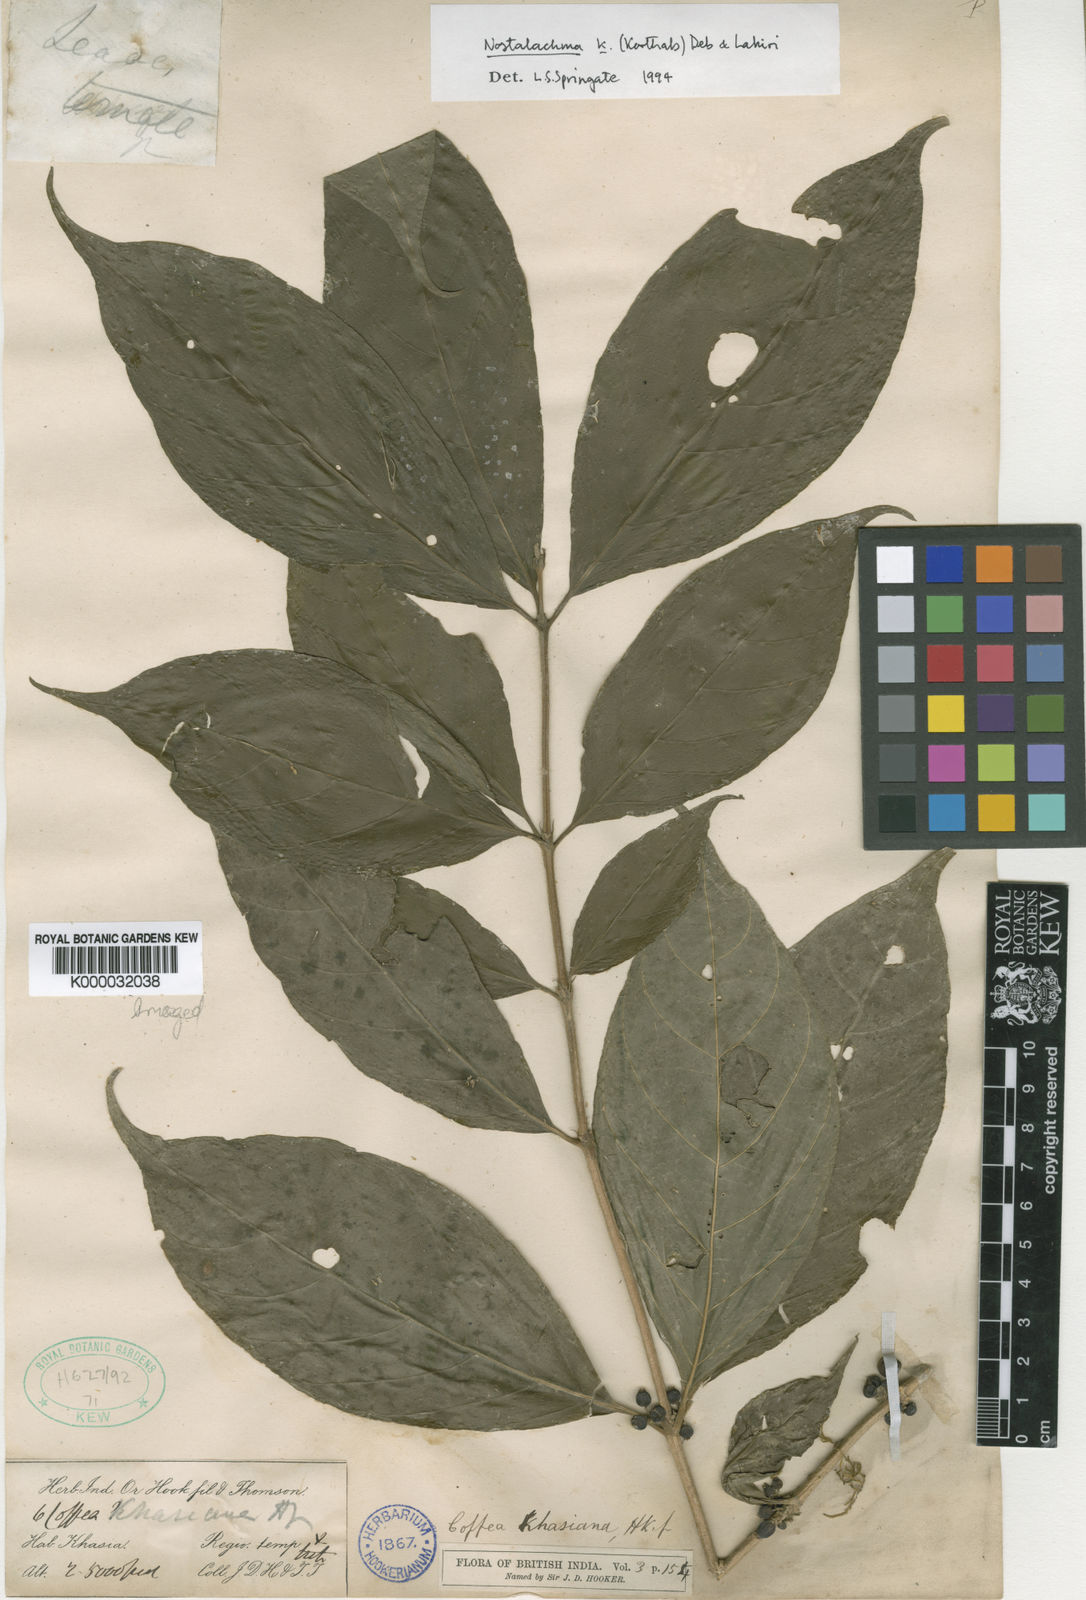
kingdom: Plantae
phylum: Tracheophyta
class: Magnoliopsida
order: Gentianales
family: Rubiaceae
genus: Nostolachma
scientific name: Nostolachma triflorum
